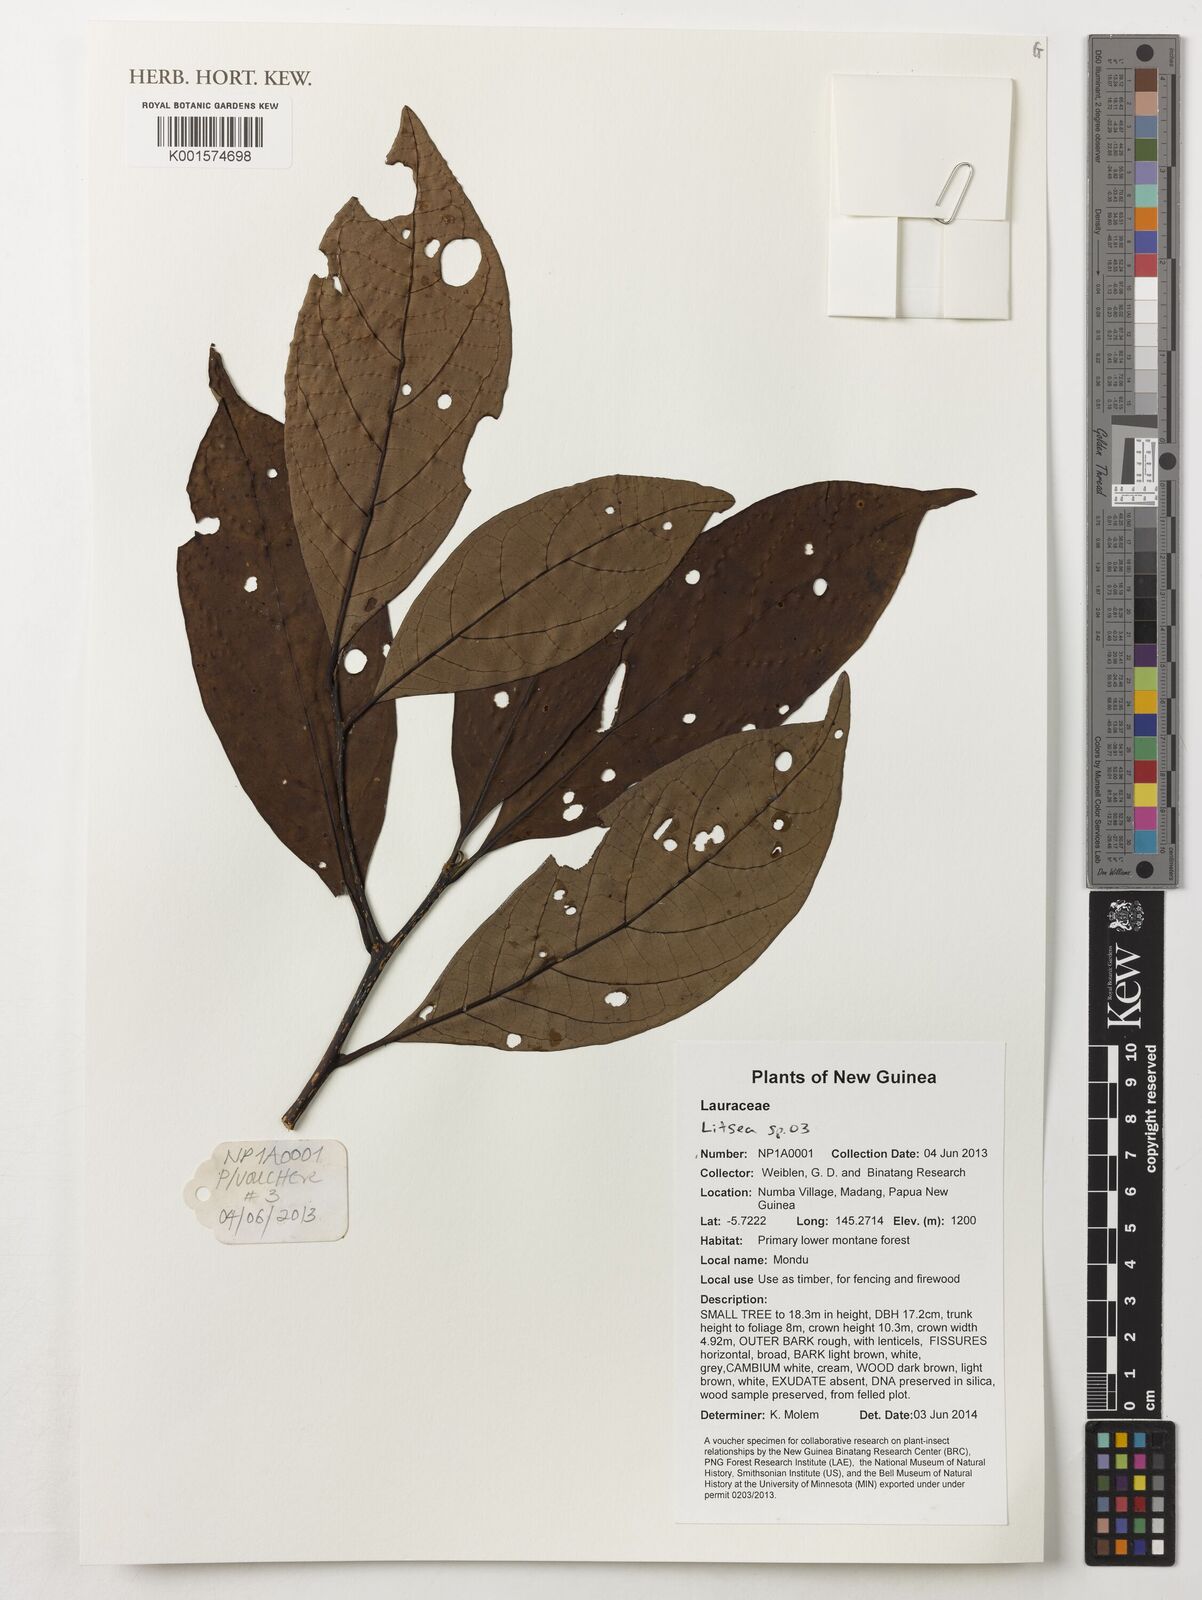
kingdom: Plantae
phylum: Tracheophyta
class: Magnoliopsida
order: Laurales
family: Lauraceae
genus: Litsea
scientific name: Litsea
